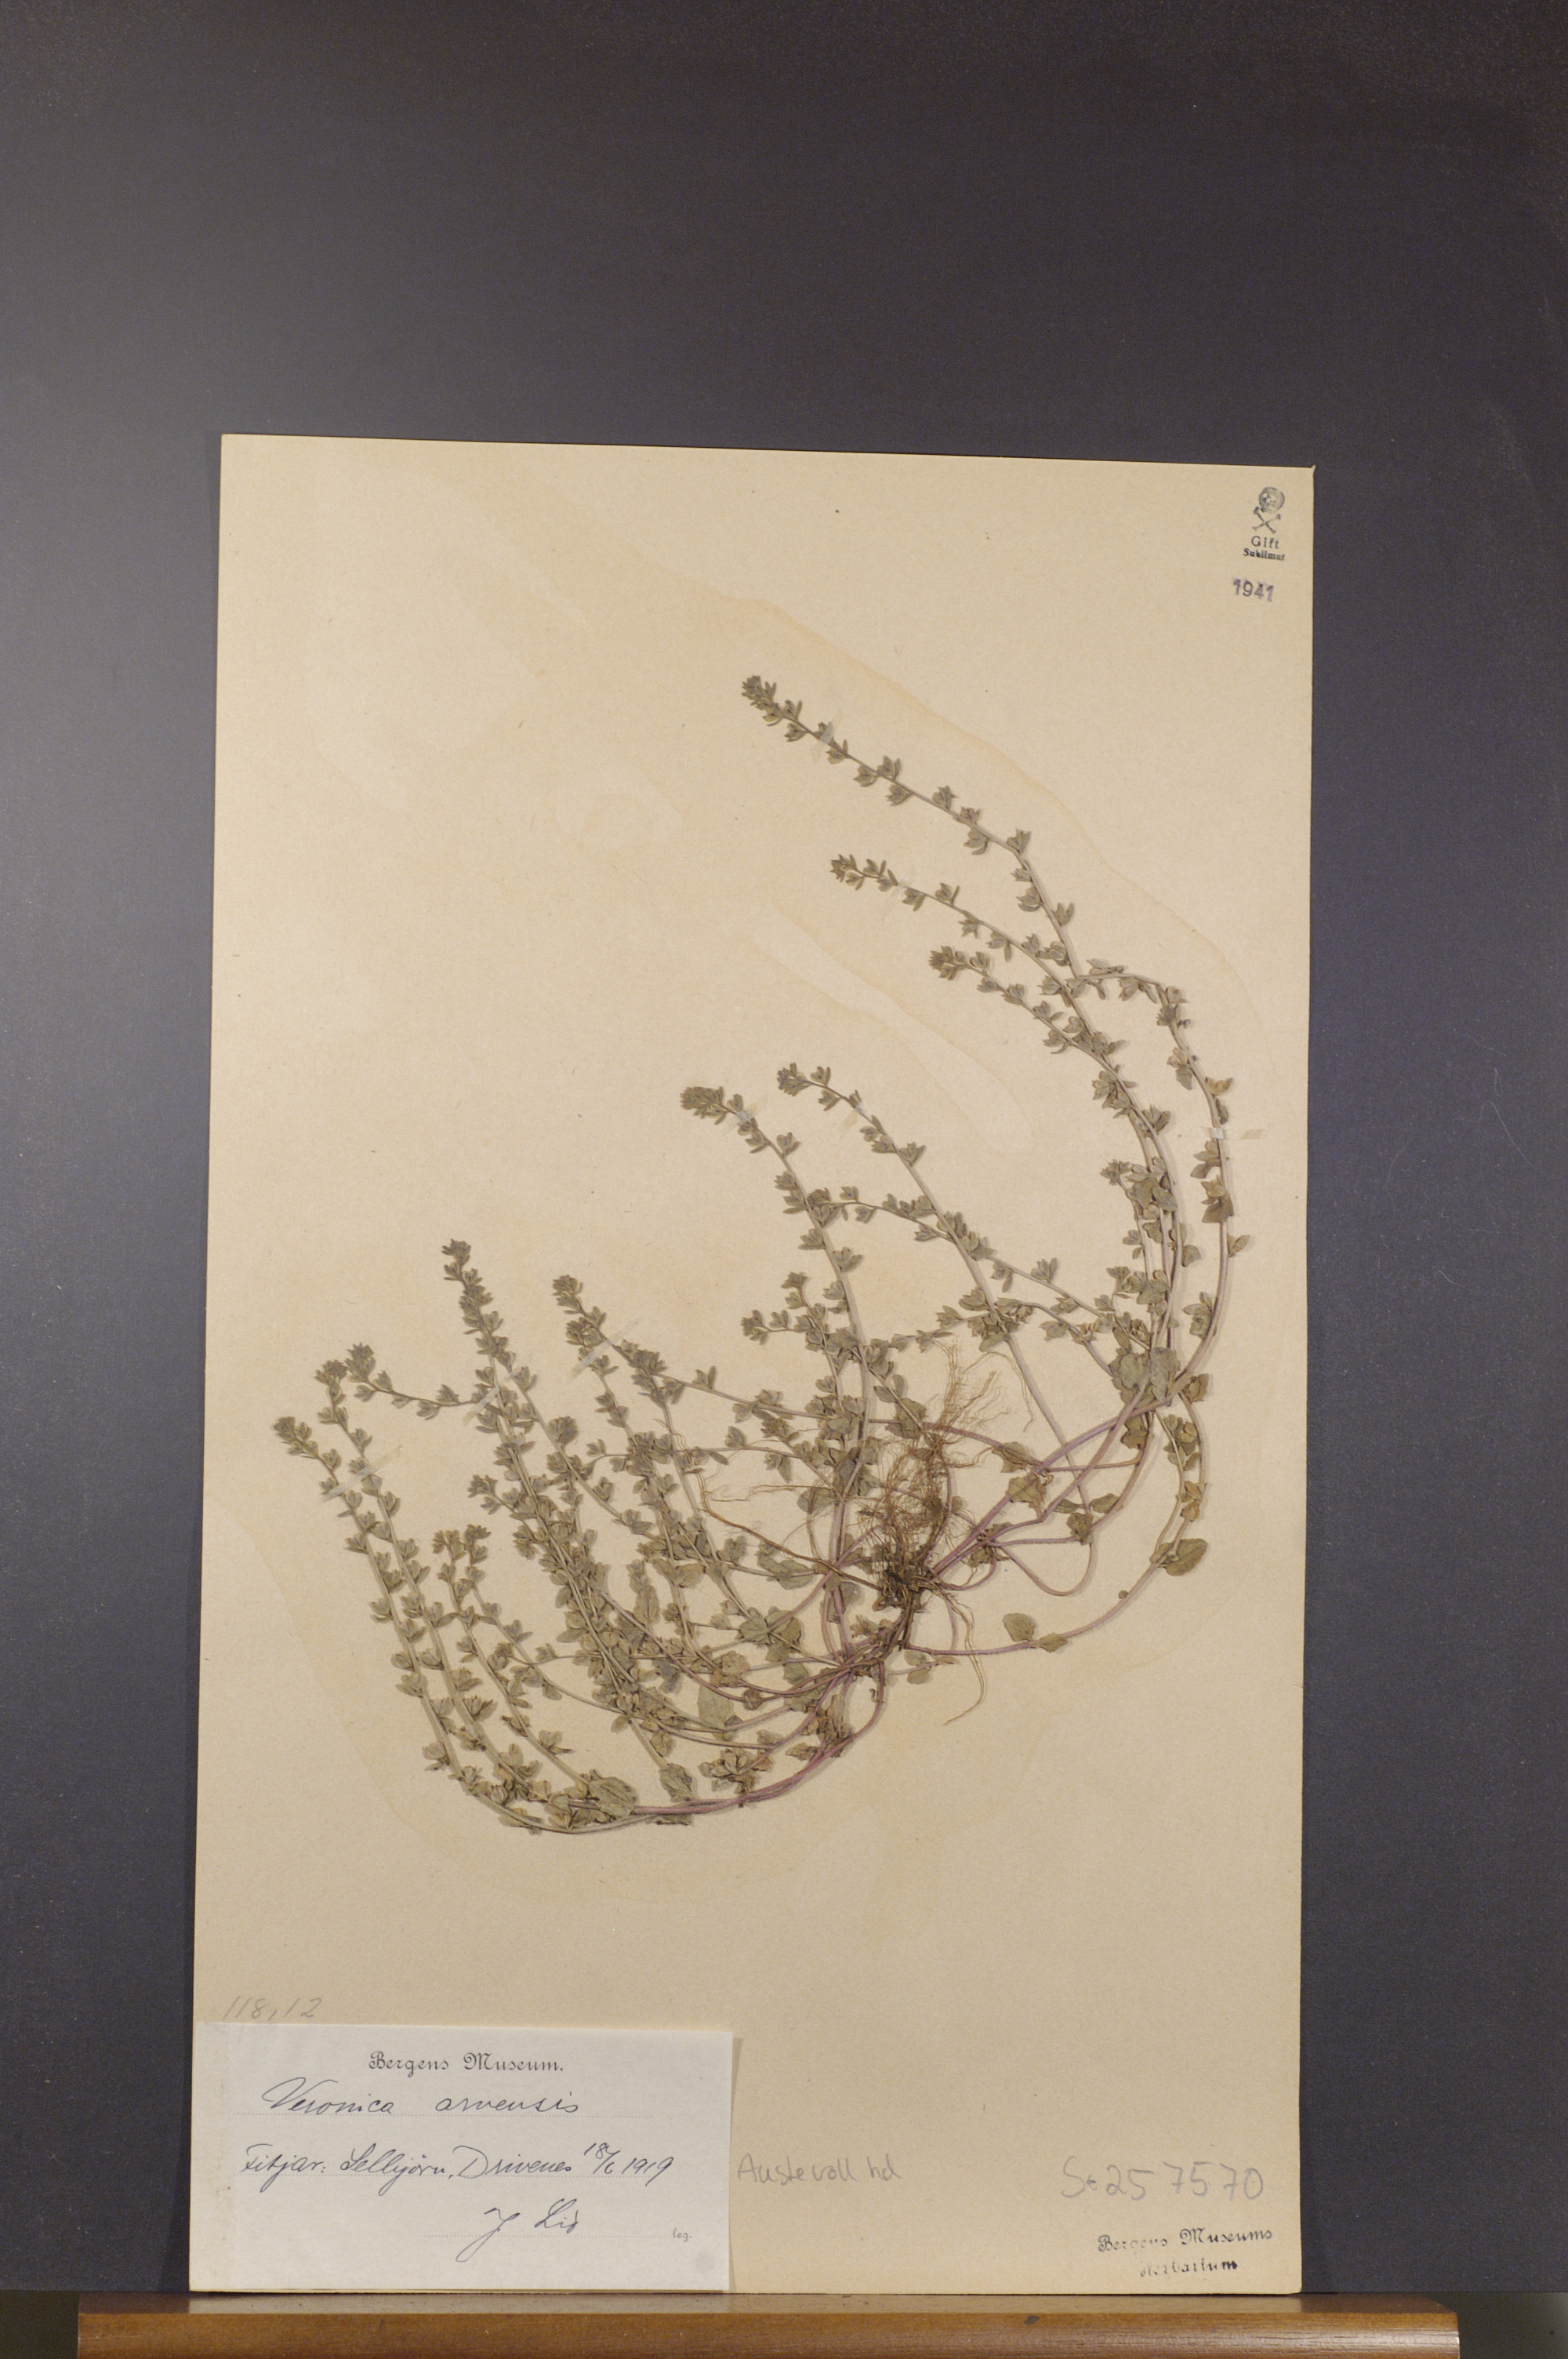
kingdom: Plantae
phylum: Tracheophyta
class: Magnoliopsida
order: Lamiales
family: Plantaginaceae
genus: Veronica
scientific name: Veronica arvensis
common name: Corn speedwell
